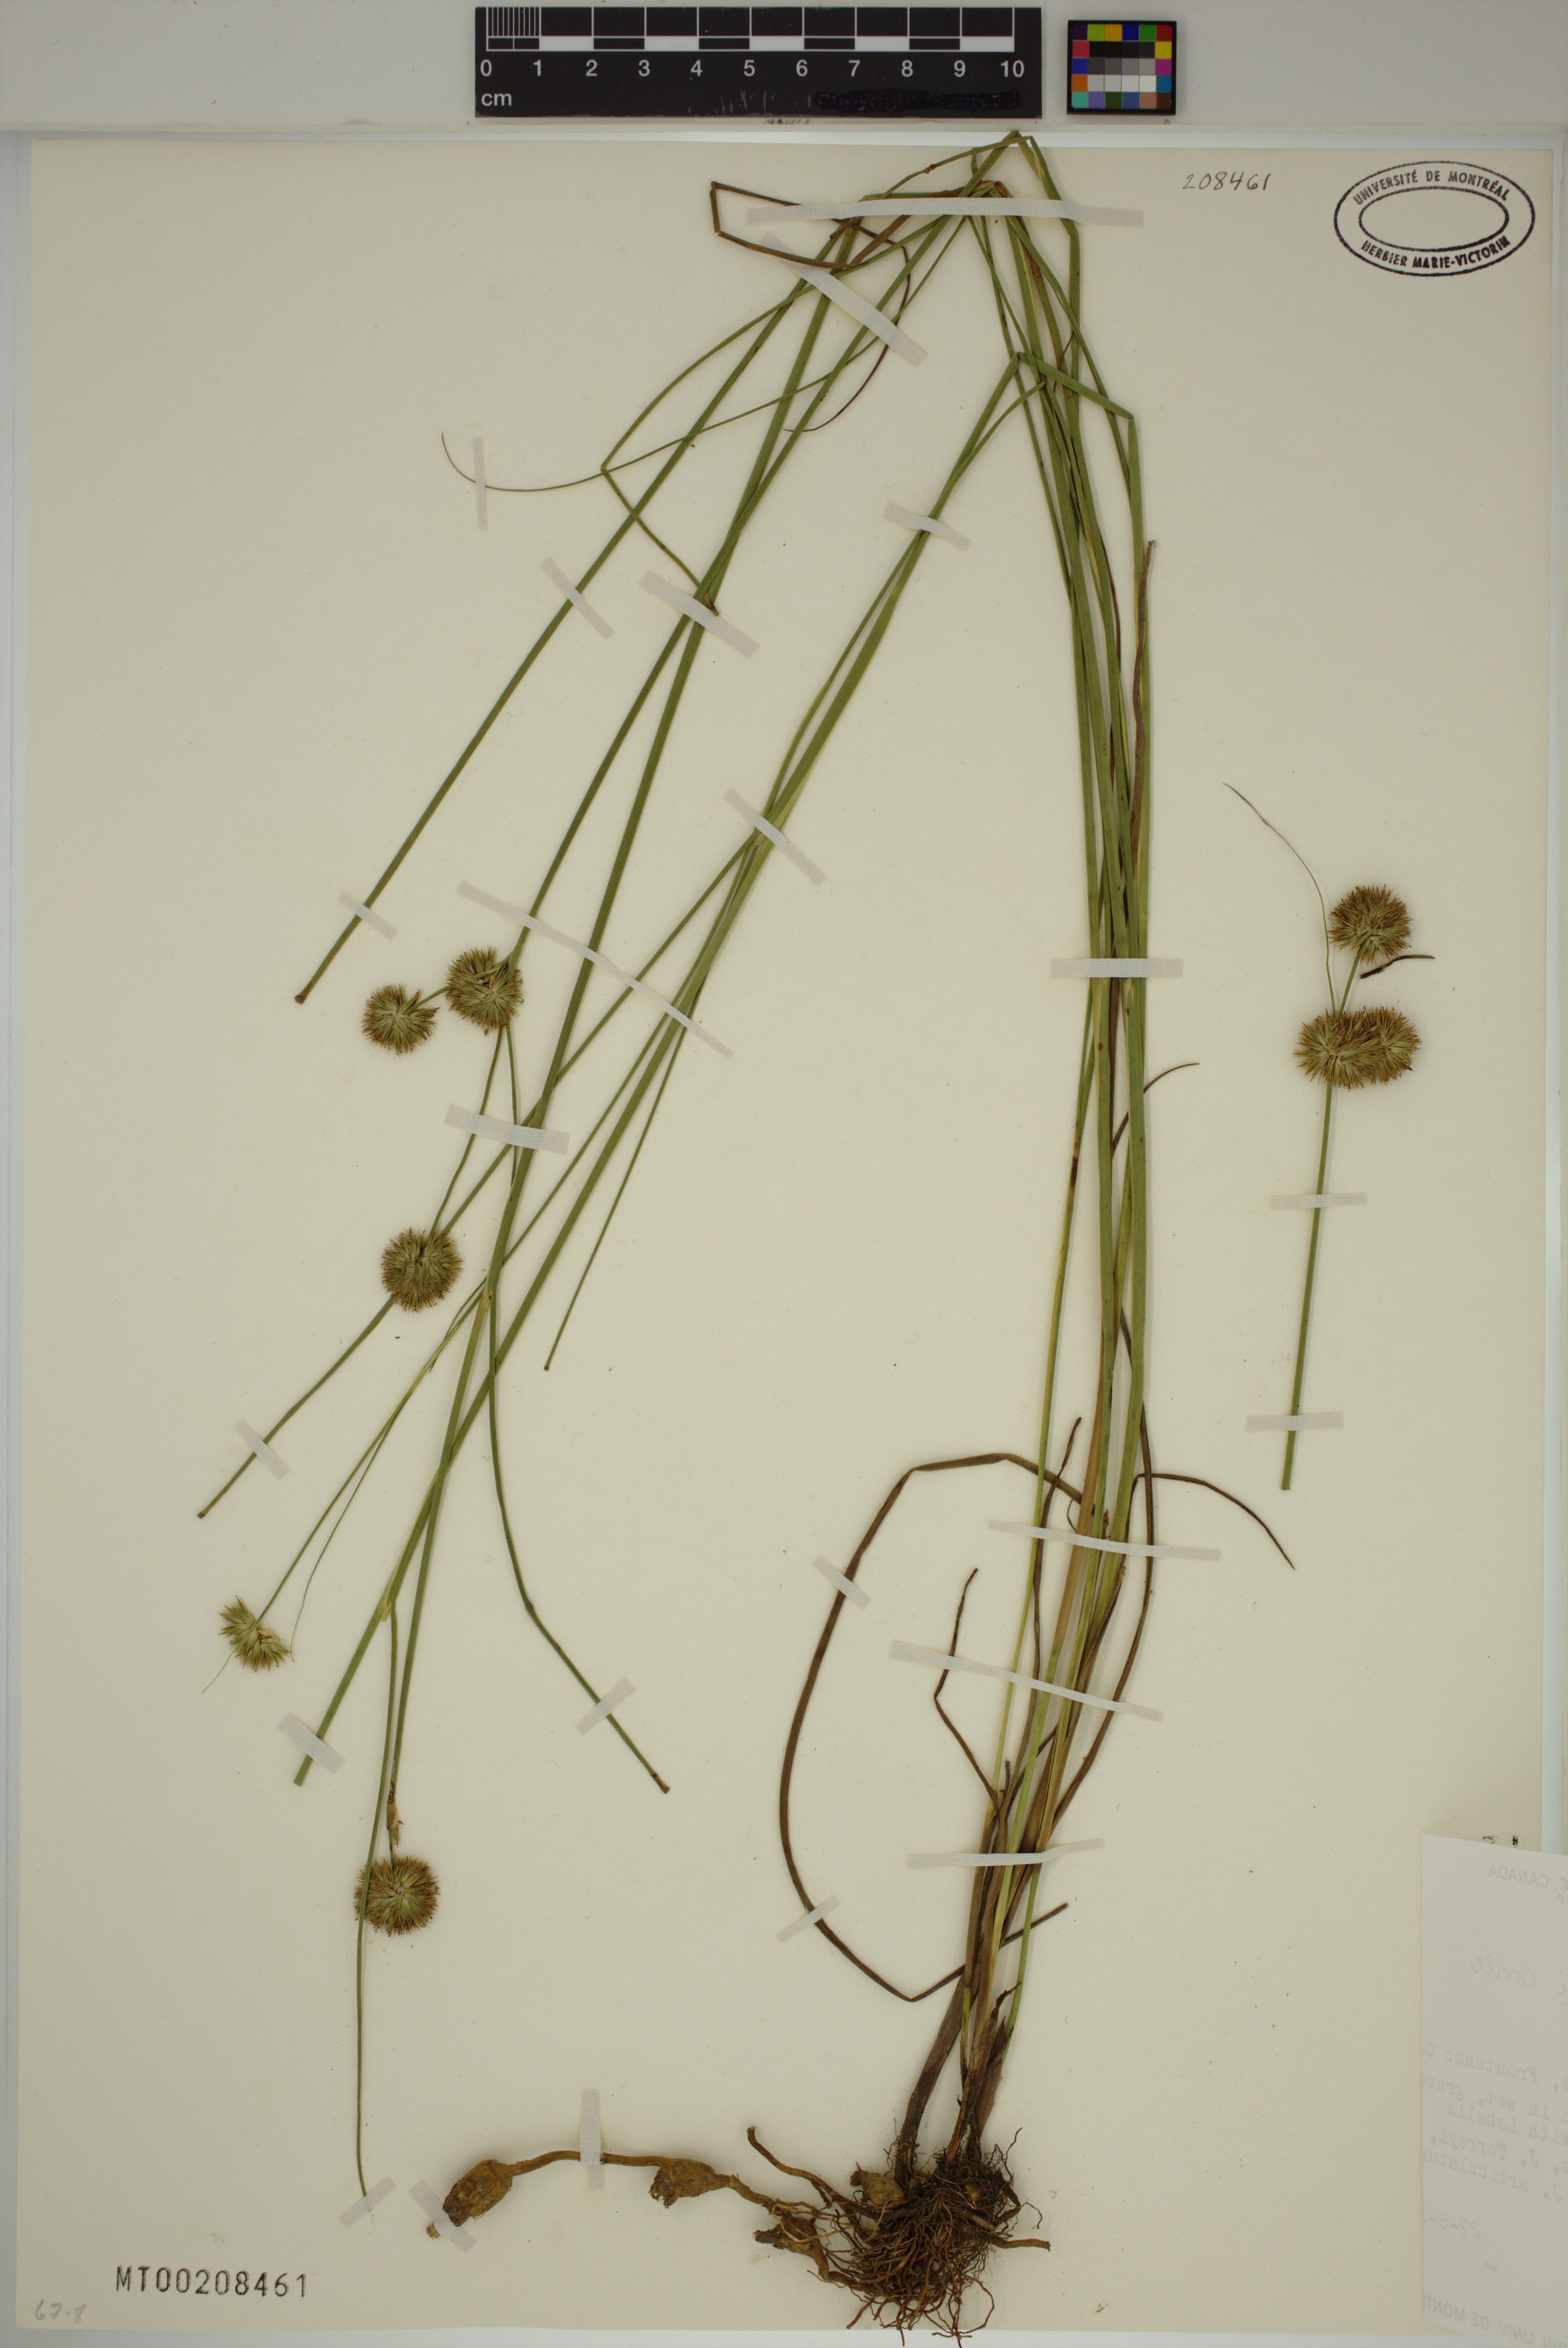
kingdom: Plantae
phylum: Tracheophyta
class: Liliopsida
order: Poales
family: Juncaceae
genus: Juncus
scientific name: Juncus torreyi
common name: Torrey's rush
